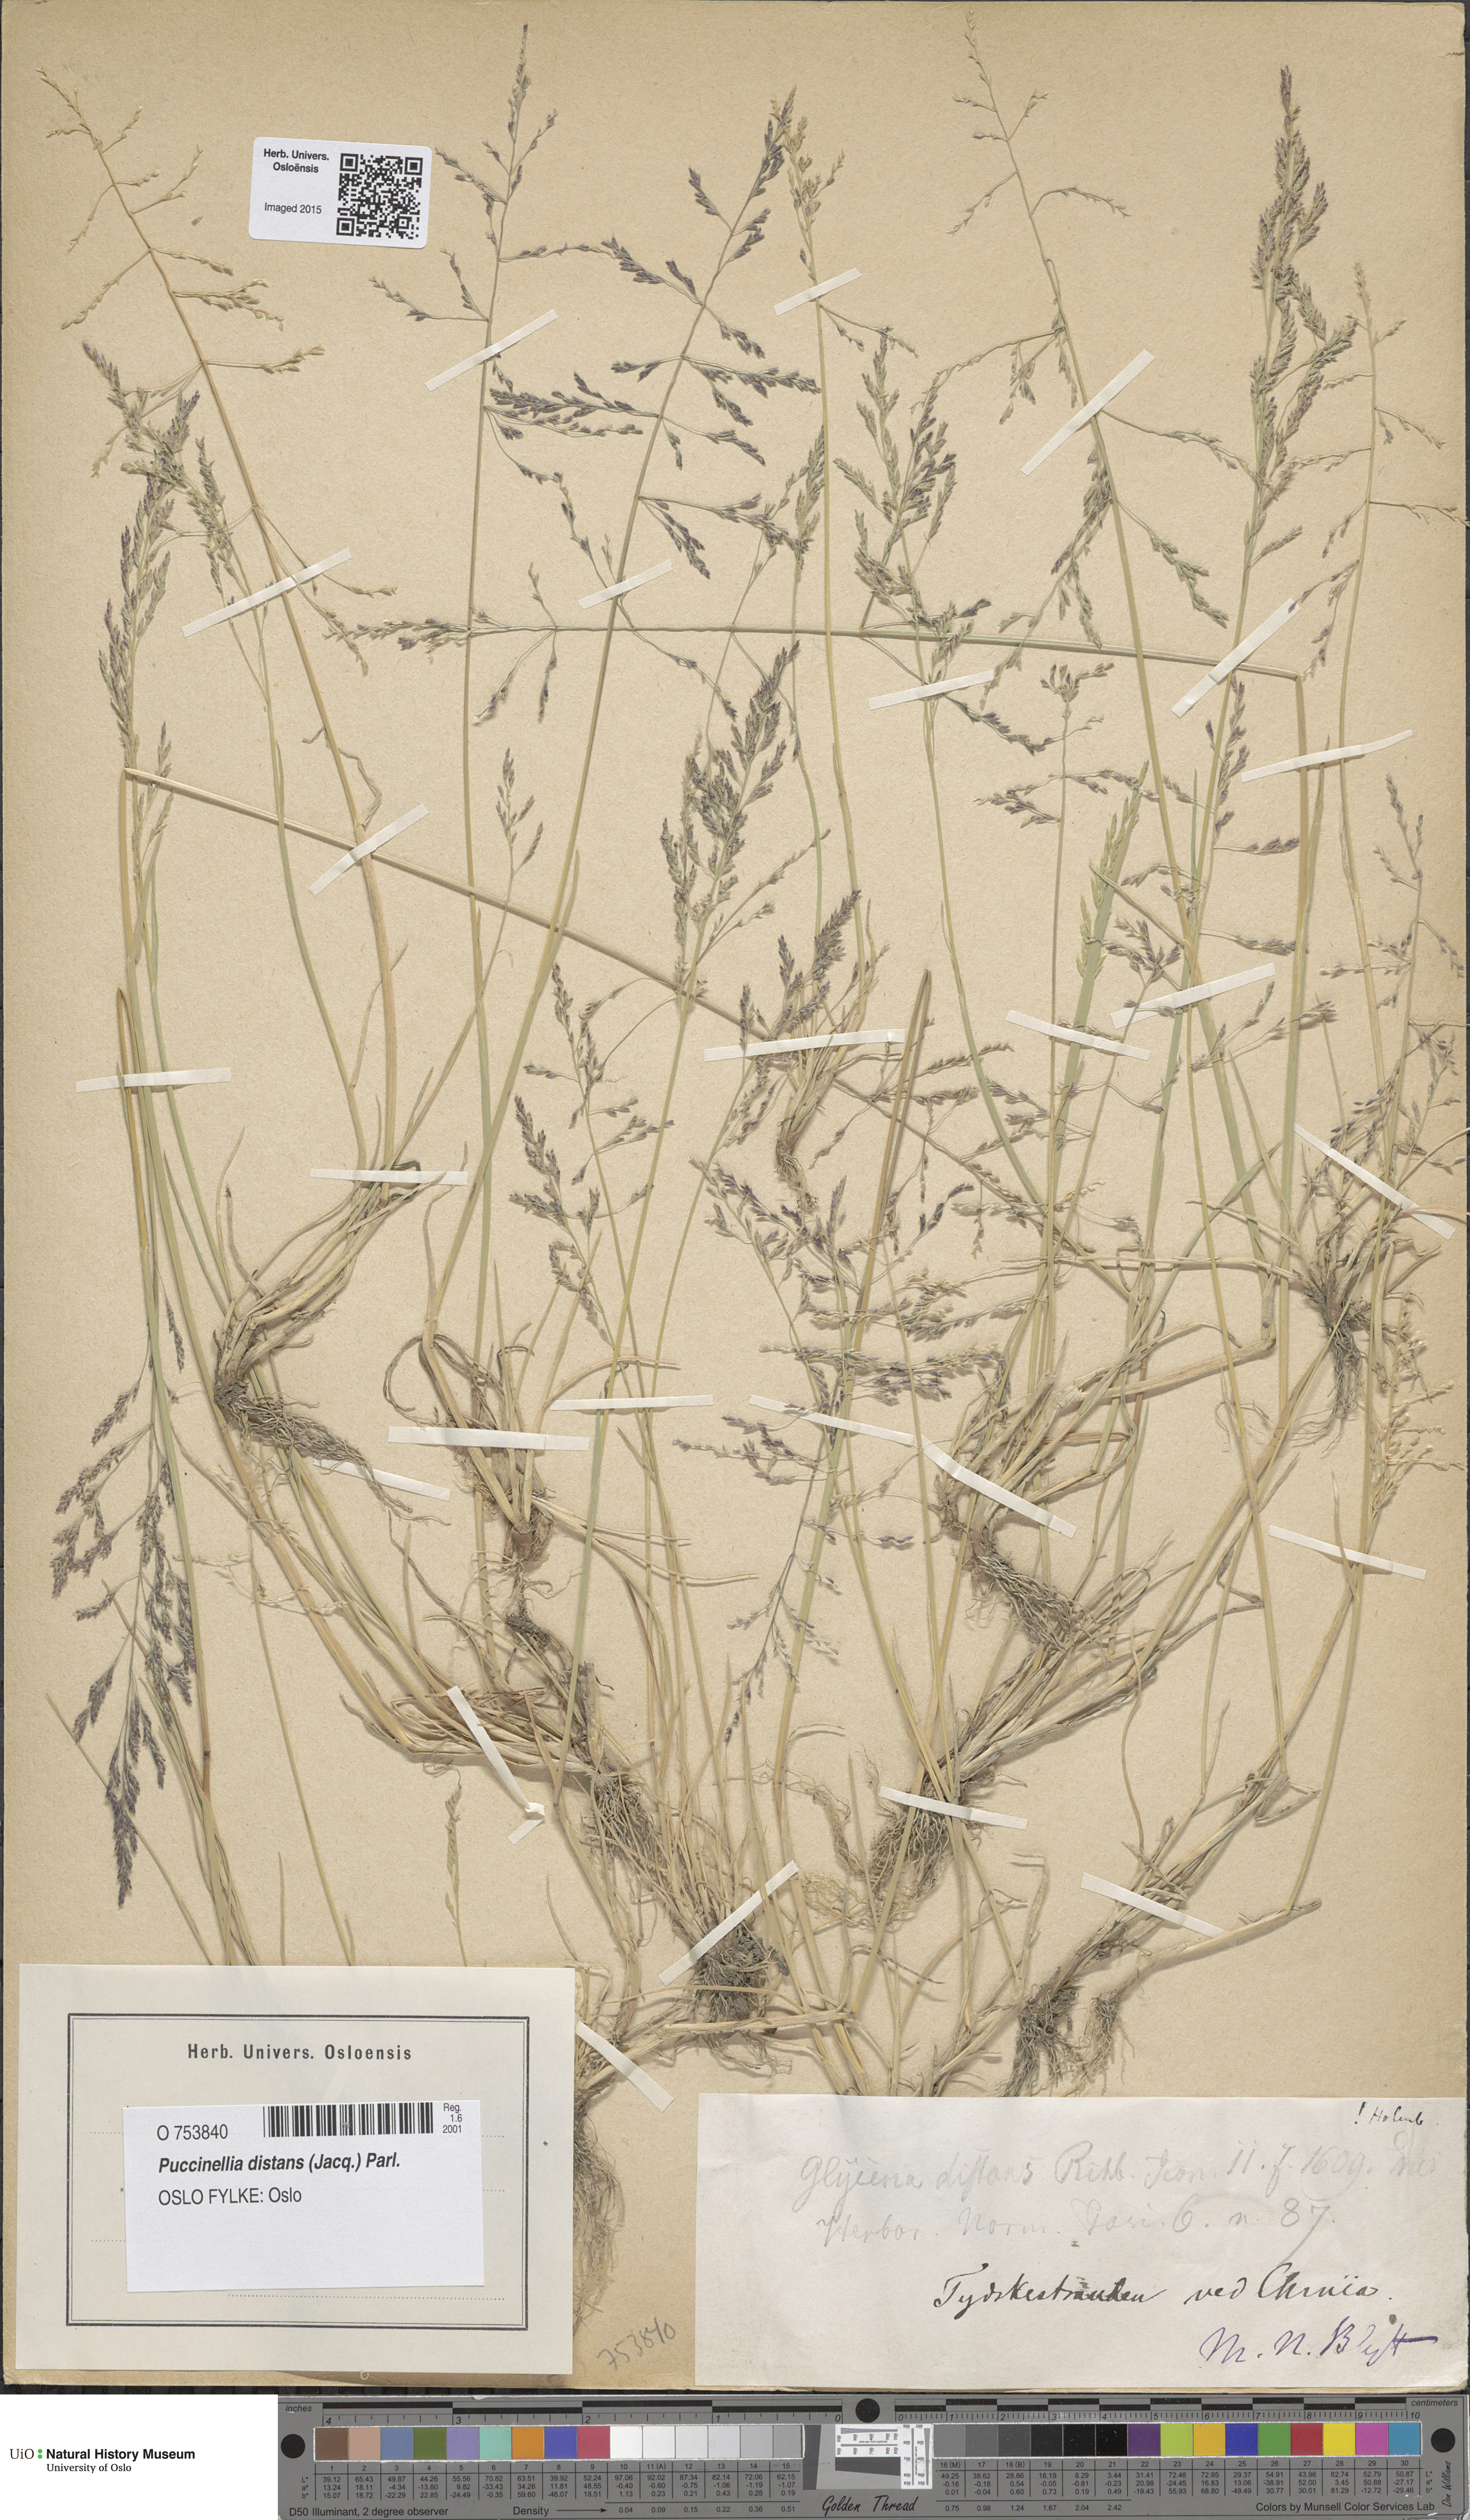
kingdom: Plantae
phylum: Tracheophyta
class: Liliopsida
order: Poales
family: Poaceae
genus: Puccinellia
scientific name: Puccinellia distans
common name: Weeping alkaligrass
